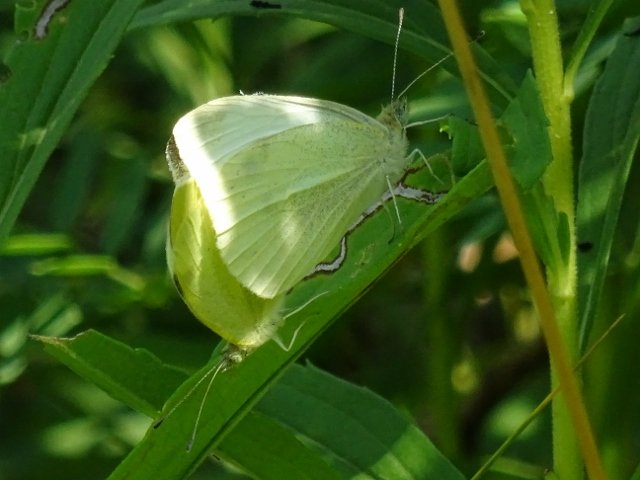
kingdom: Animalia
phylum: Arthropoda
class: Insecta
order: Lepidoptera
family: Pieridae
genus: Pieris
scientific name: Pieris rapae
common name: Cabbage White
